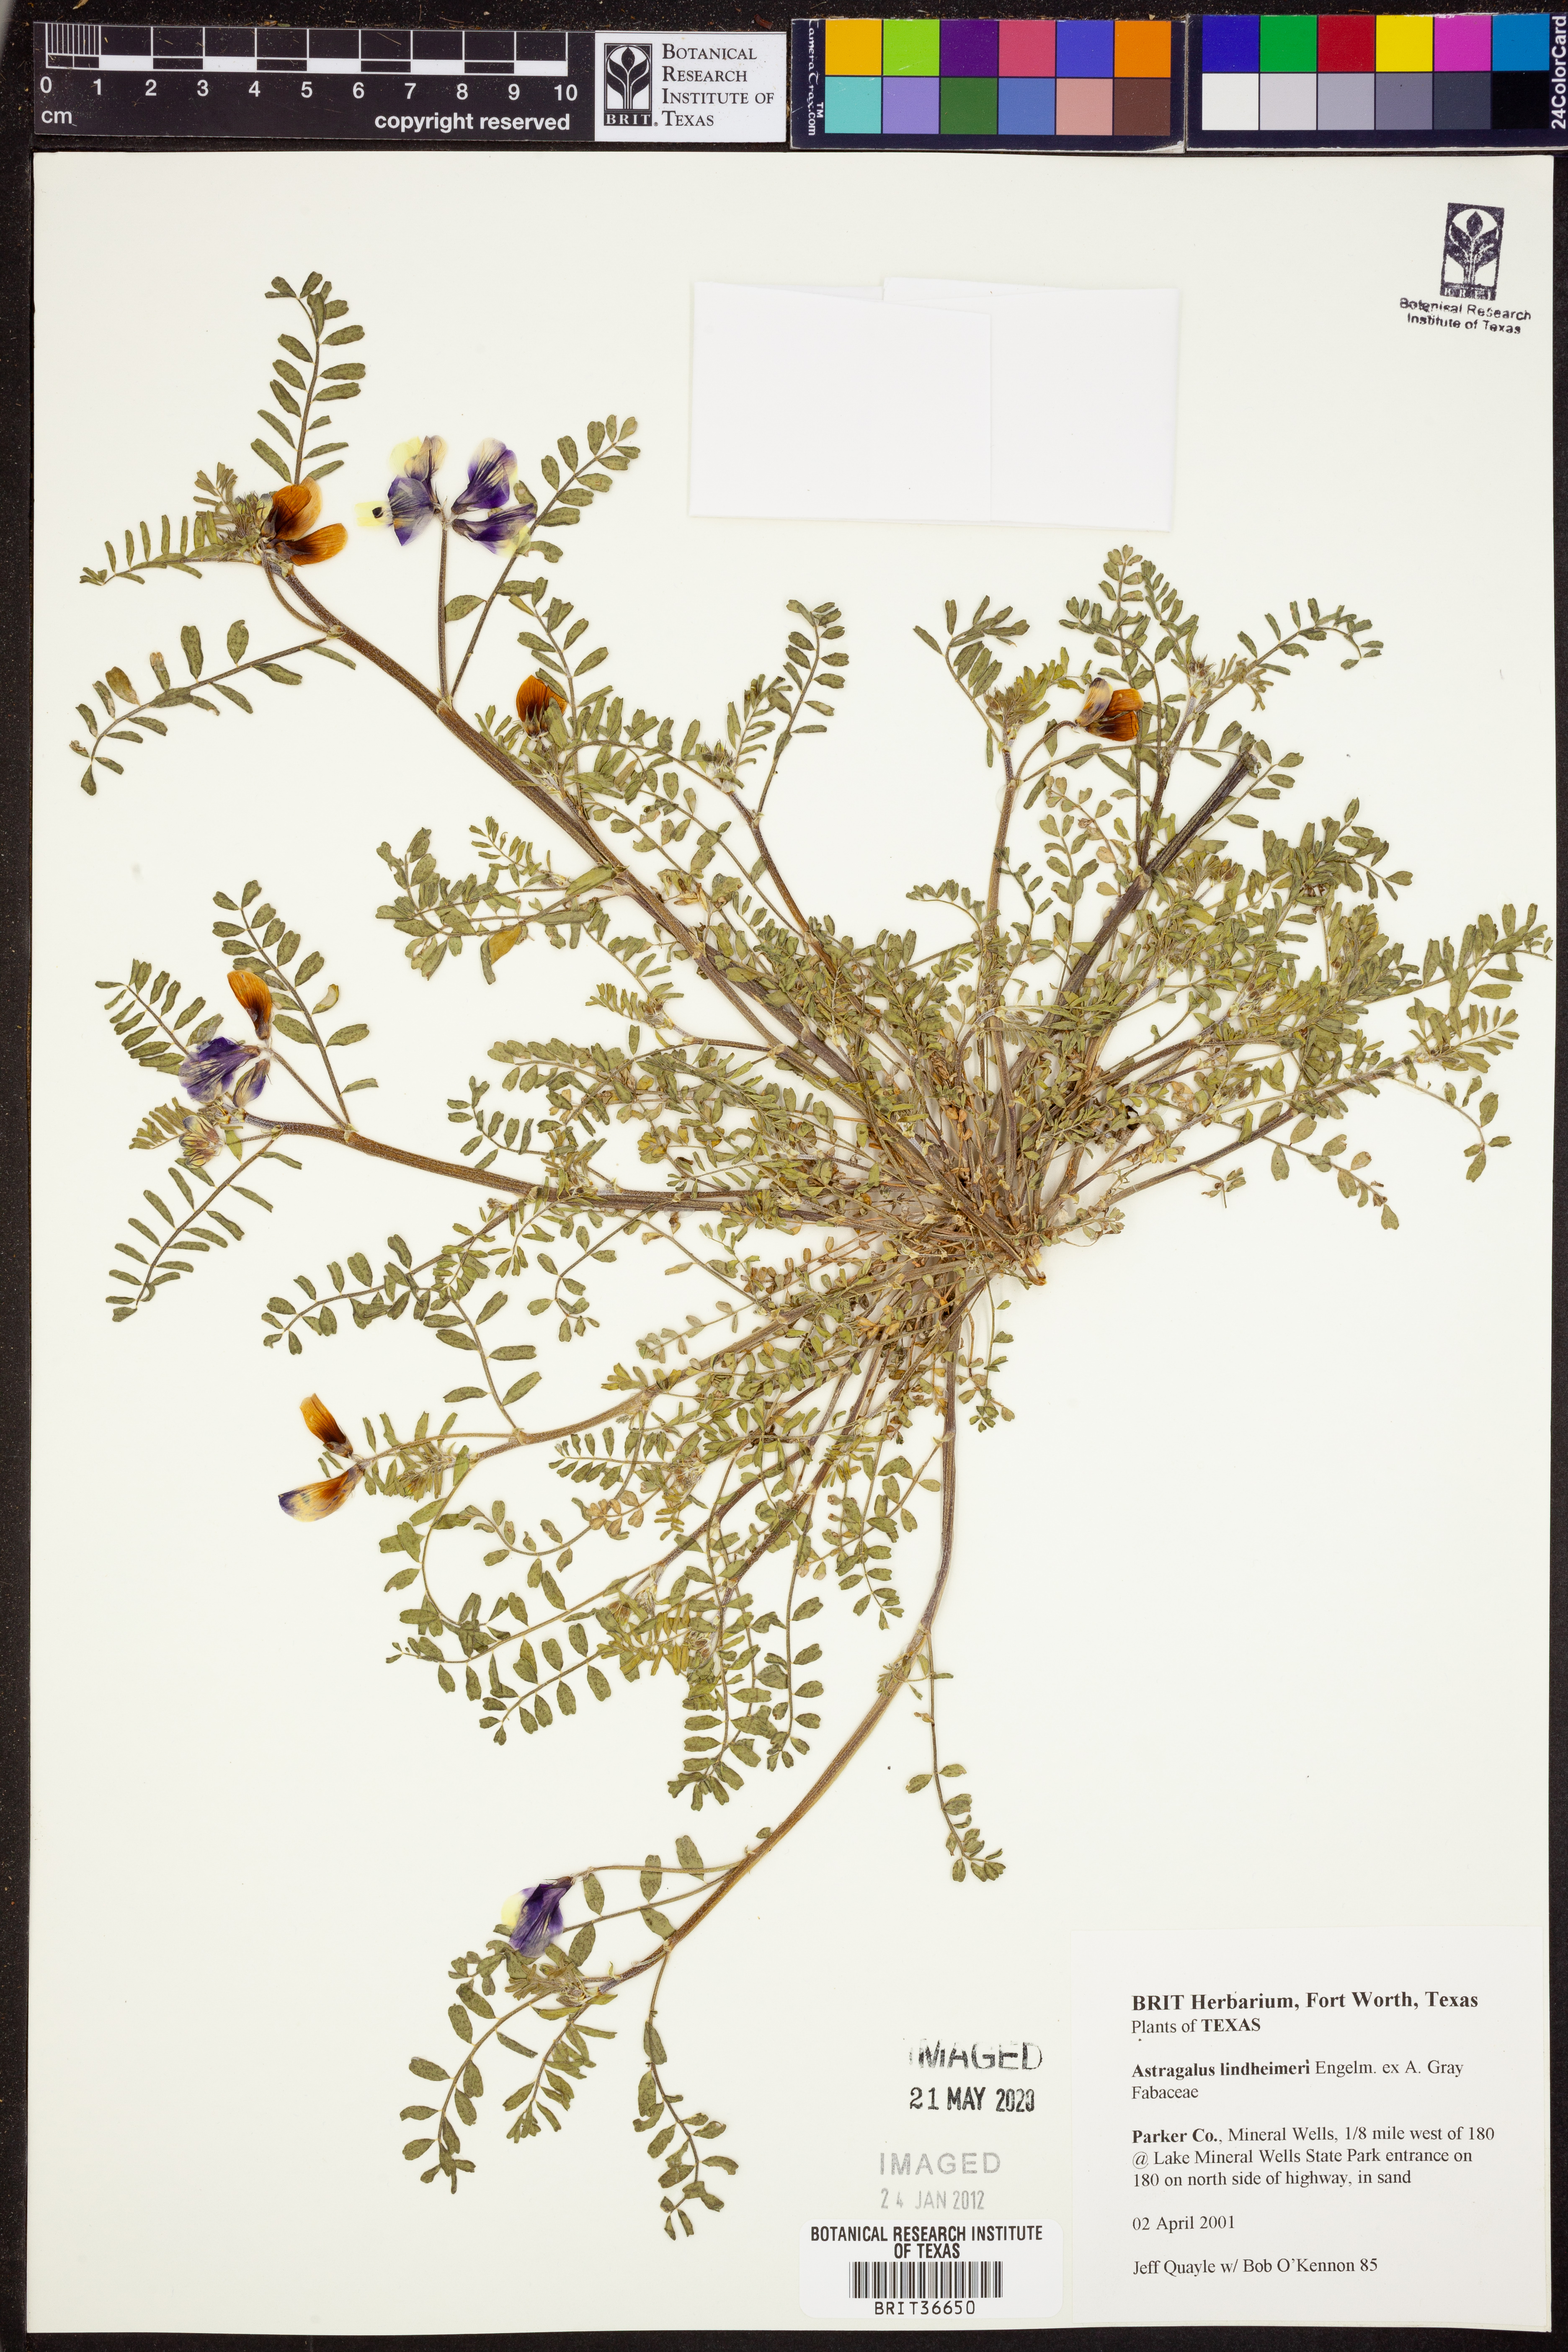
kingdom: Plantae
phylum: Tracheophyta
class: Magnoliopsida
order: Fabales
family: Fabaceae
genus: Astragalus
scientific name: Astragalus lindheimeri
